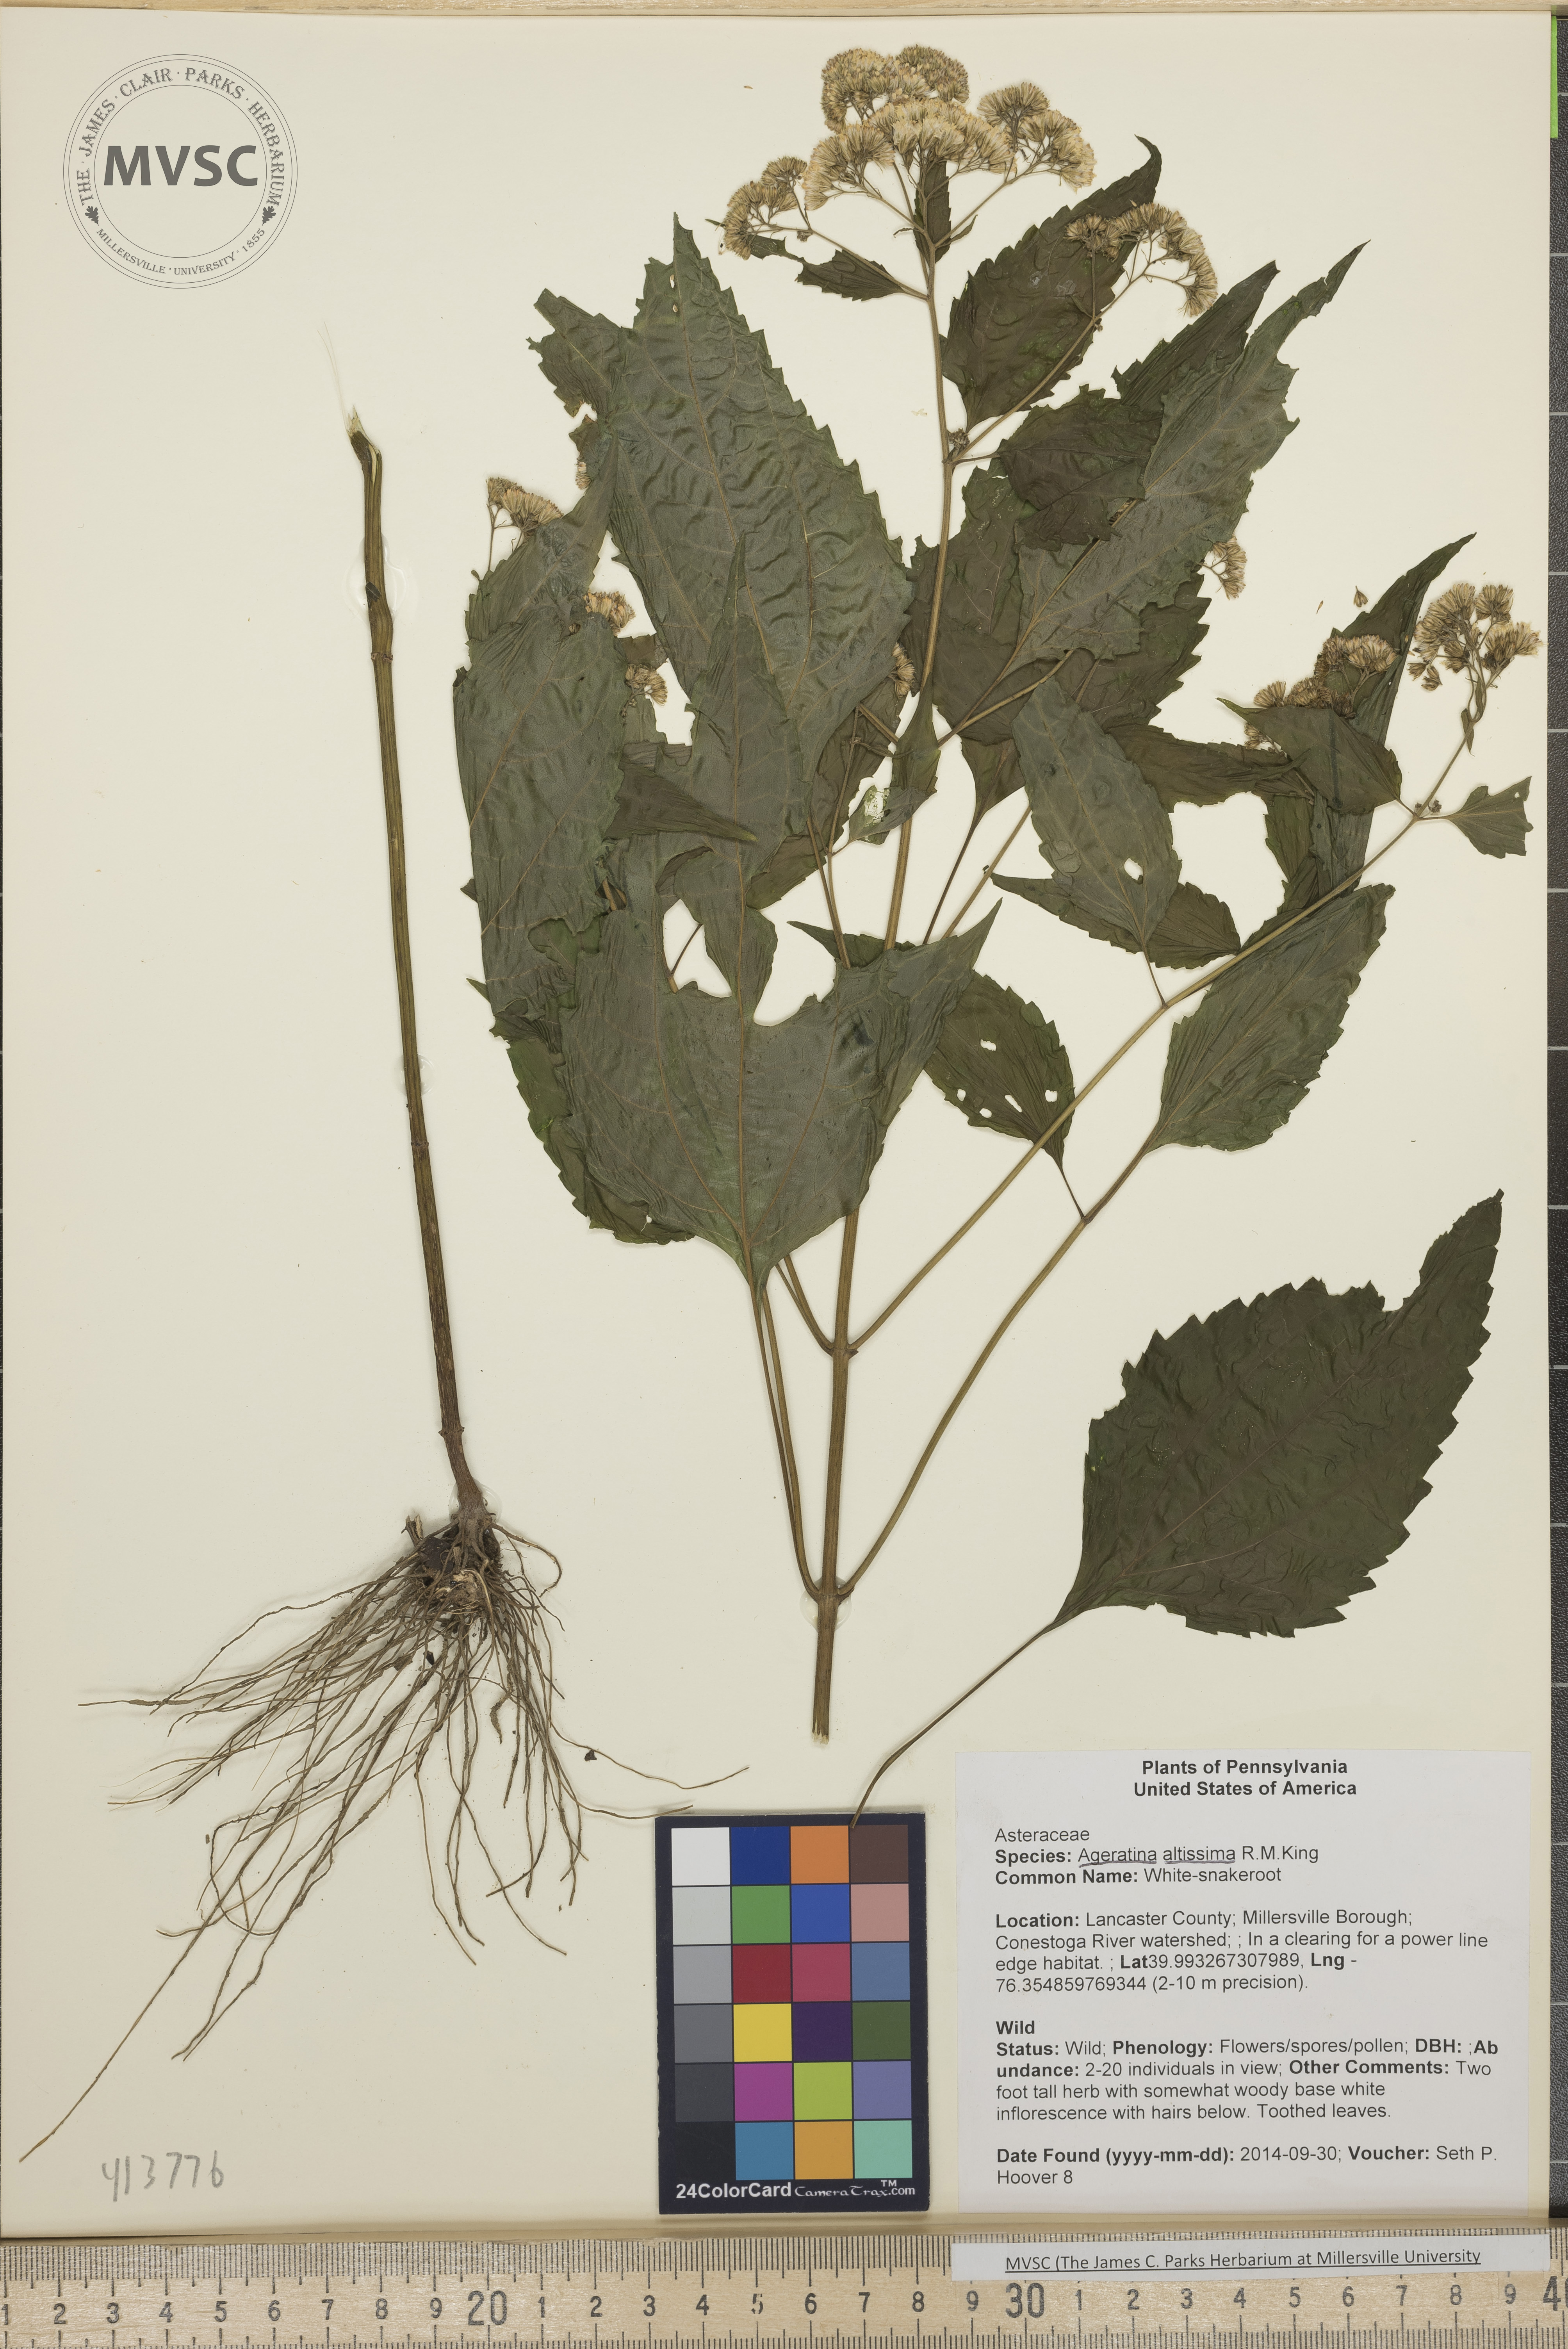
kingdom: Plantae
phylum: Tracheophyta
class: Magnoliopsida
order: Asterales
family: Asteraceae
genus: Ageratina
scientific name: Ageratina altissima
